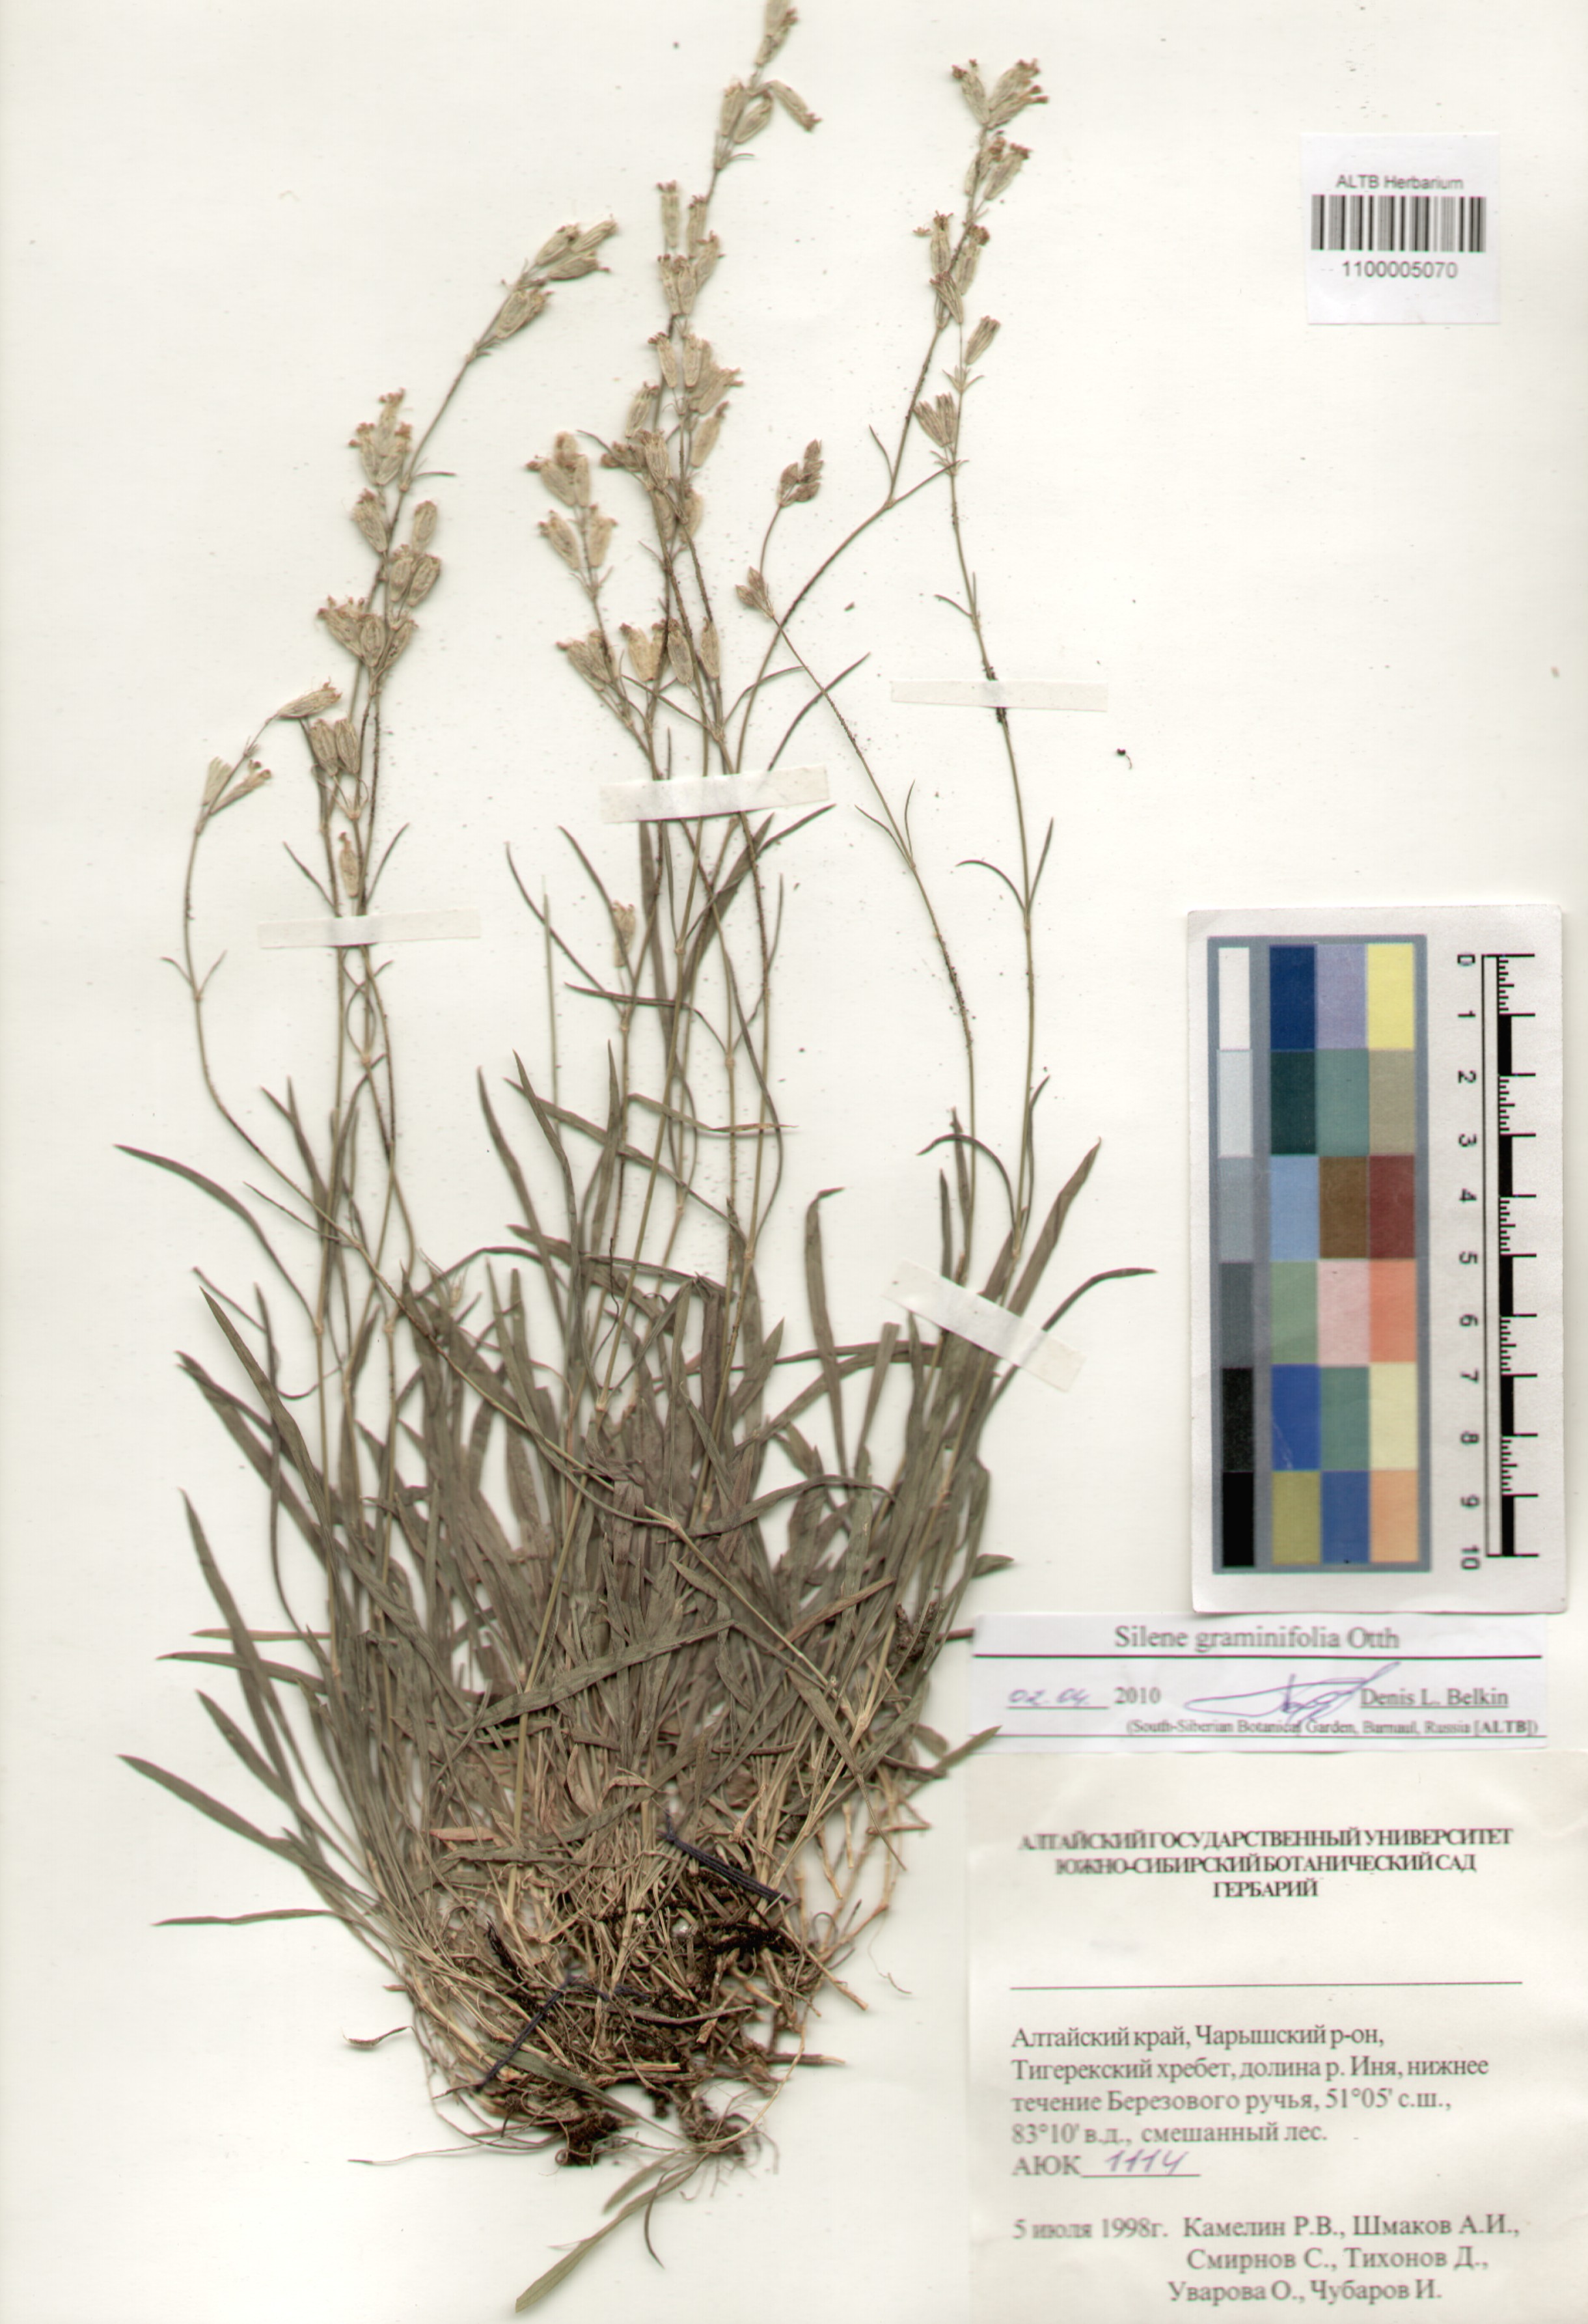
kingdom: Plantae
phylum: Tracheophyta
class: Magnoliopsida
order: Caryophyllales
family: Caryophyllaceae
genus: Silene
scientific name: Silene graminifolia
